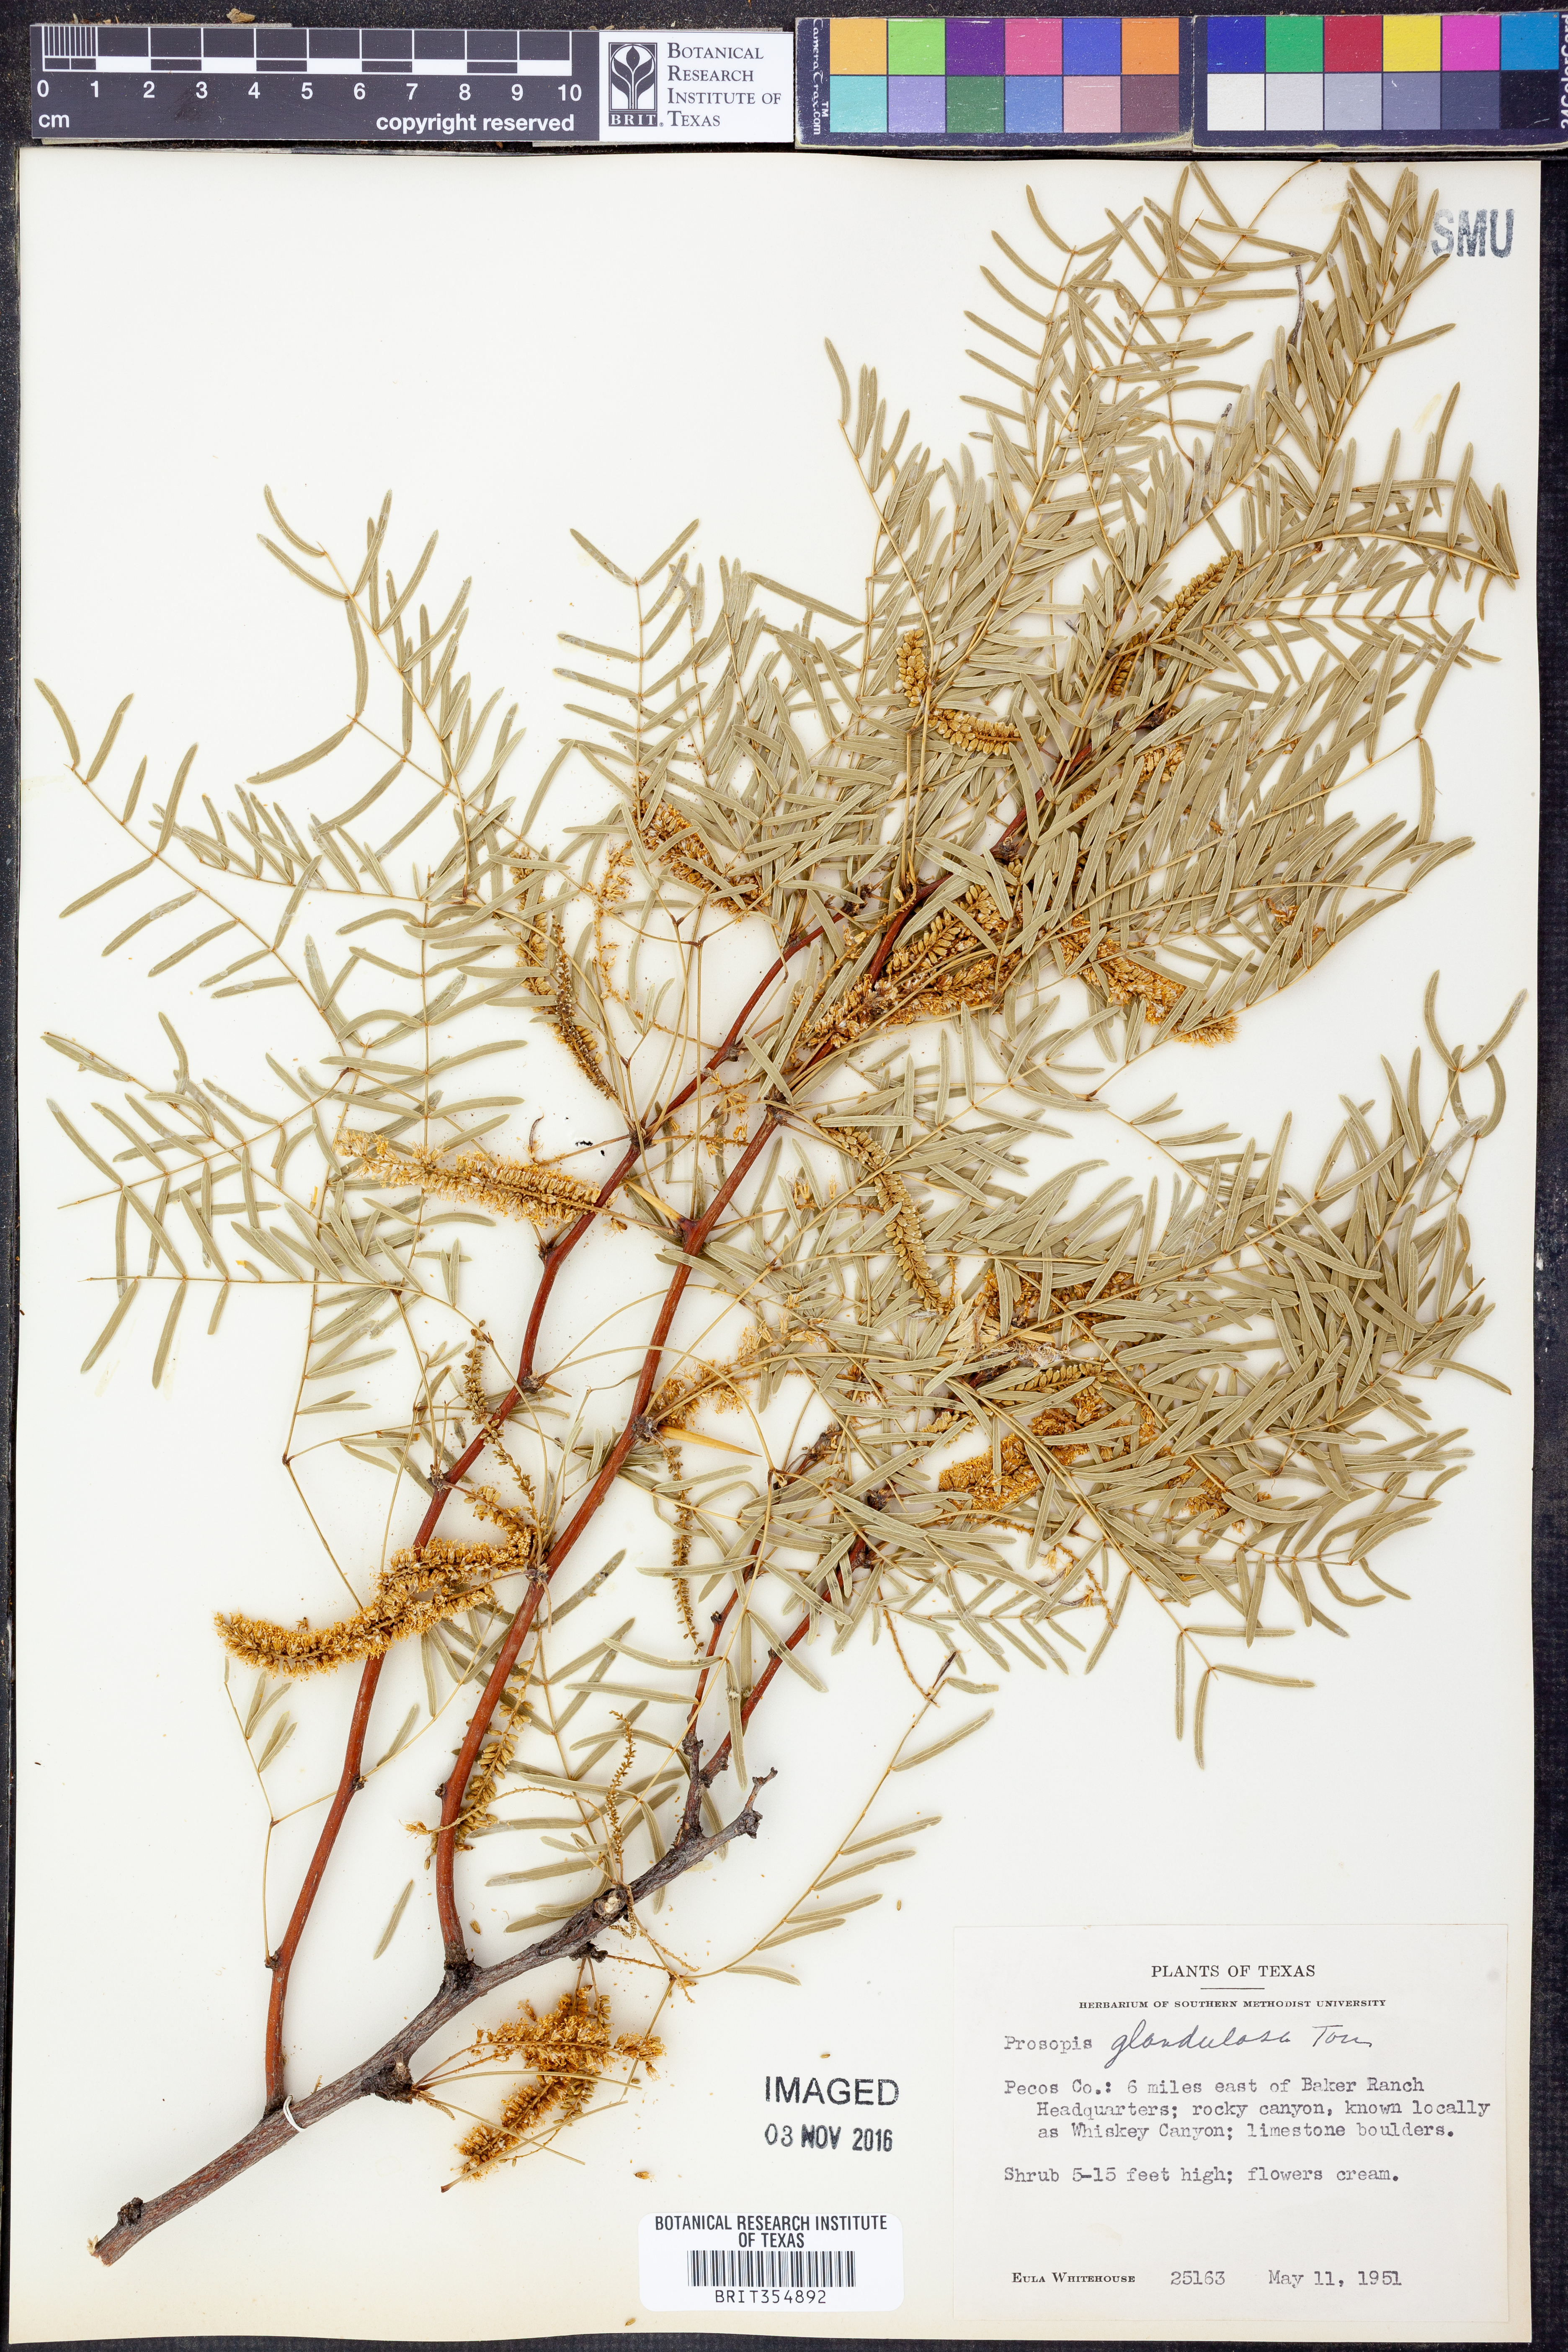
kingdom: Plantae
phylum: Tracheophyta
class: Magnoliopsida
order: Fabales
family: Fabaceae
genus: Prosopis
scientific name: Prosopis glandulosa
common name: Honey mesquite
